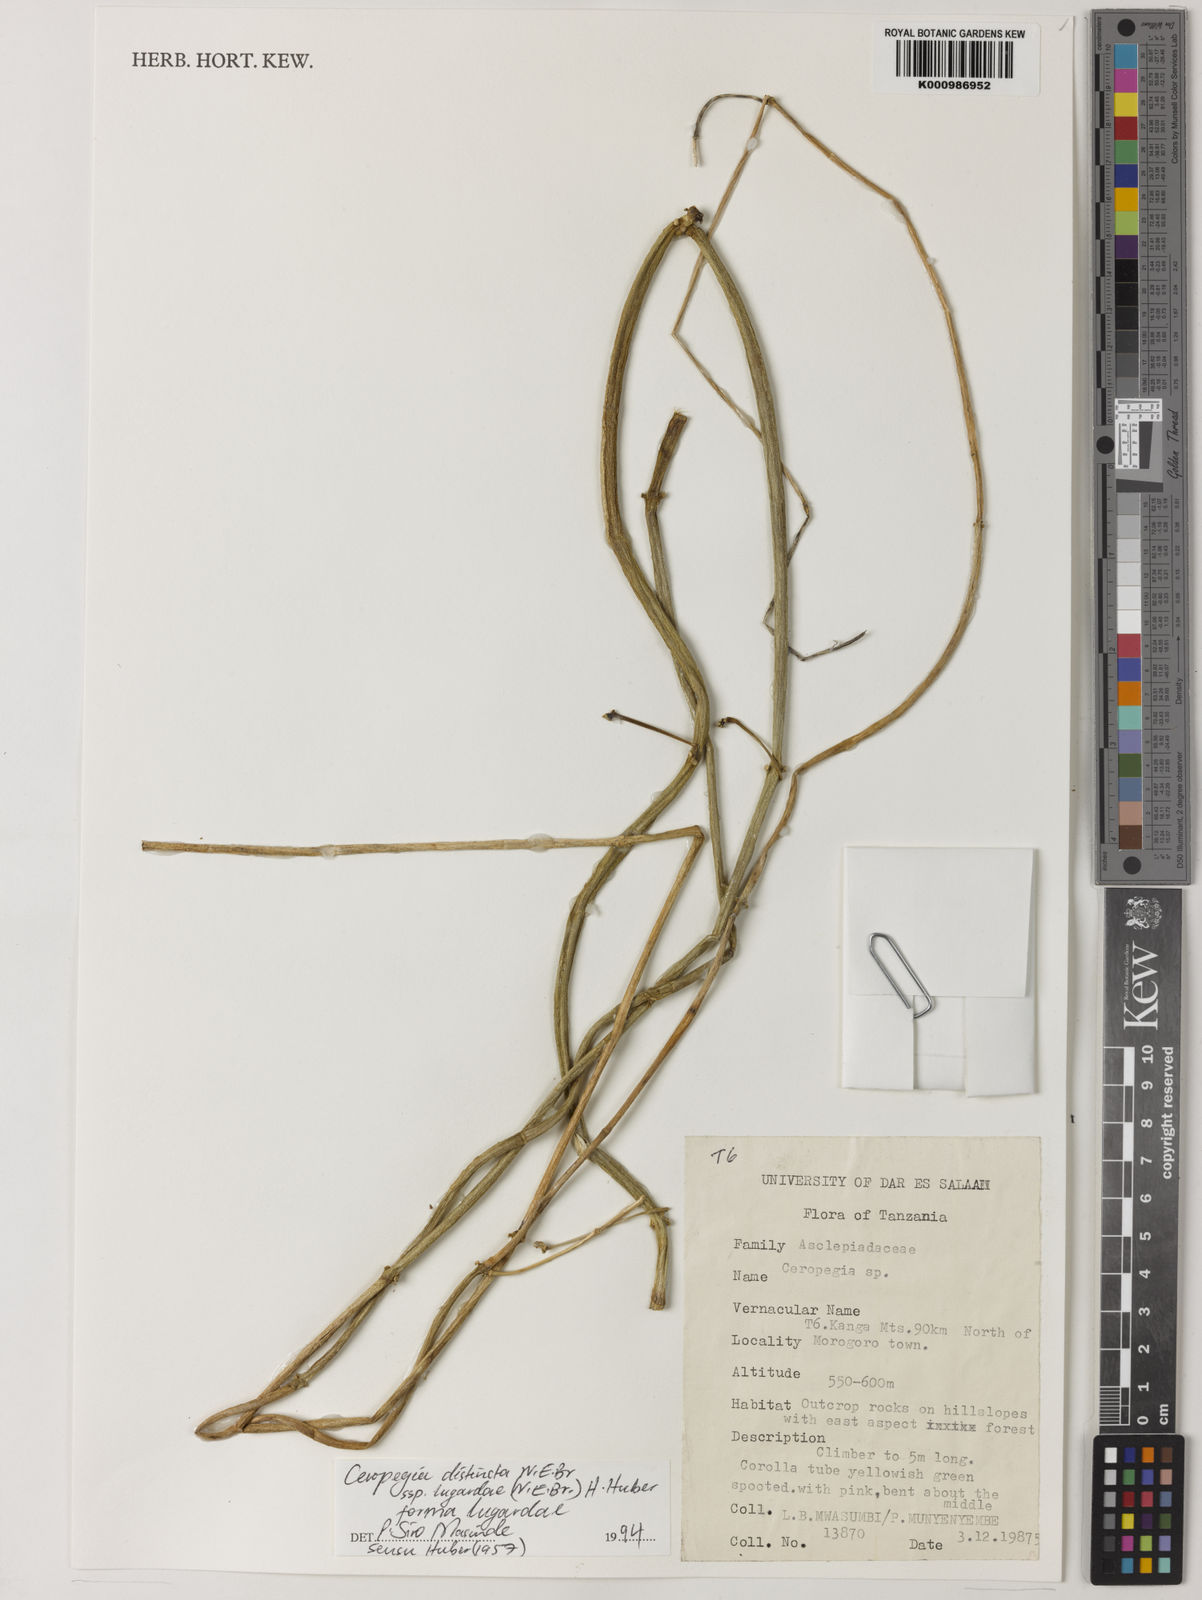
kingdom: Plantae
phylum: Tracheophyta
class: Magnoliopsida
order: Gentianales
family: Apocynaceae
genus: Ceropegia
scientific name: Ceropegia lugardiae
